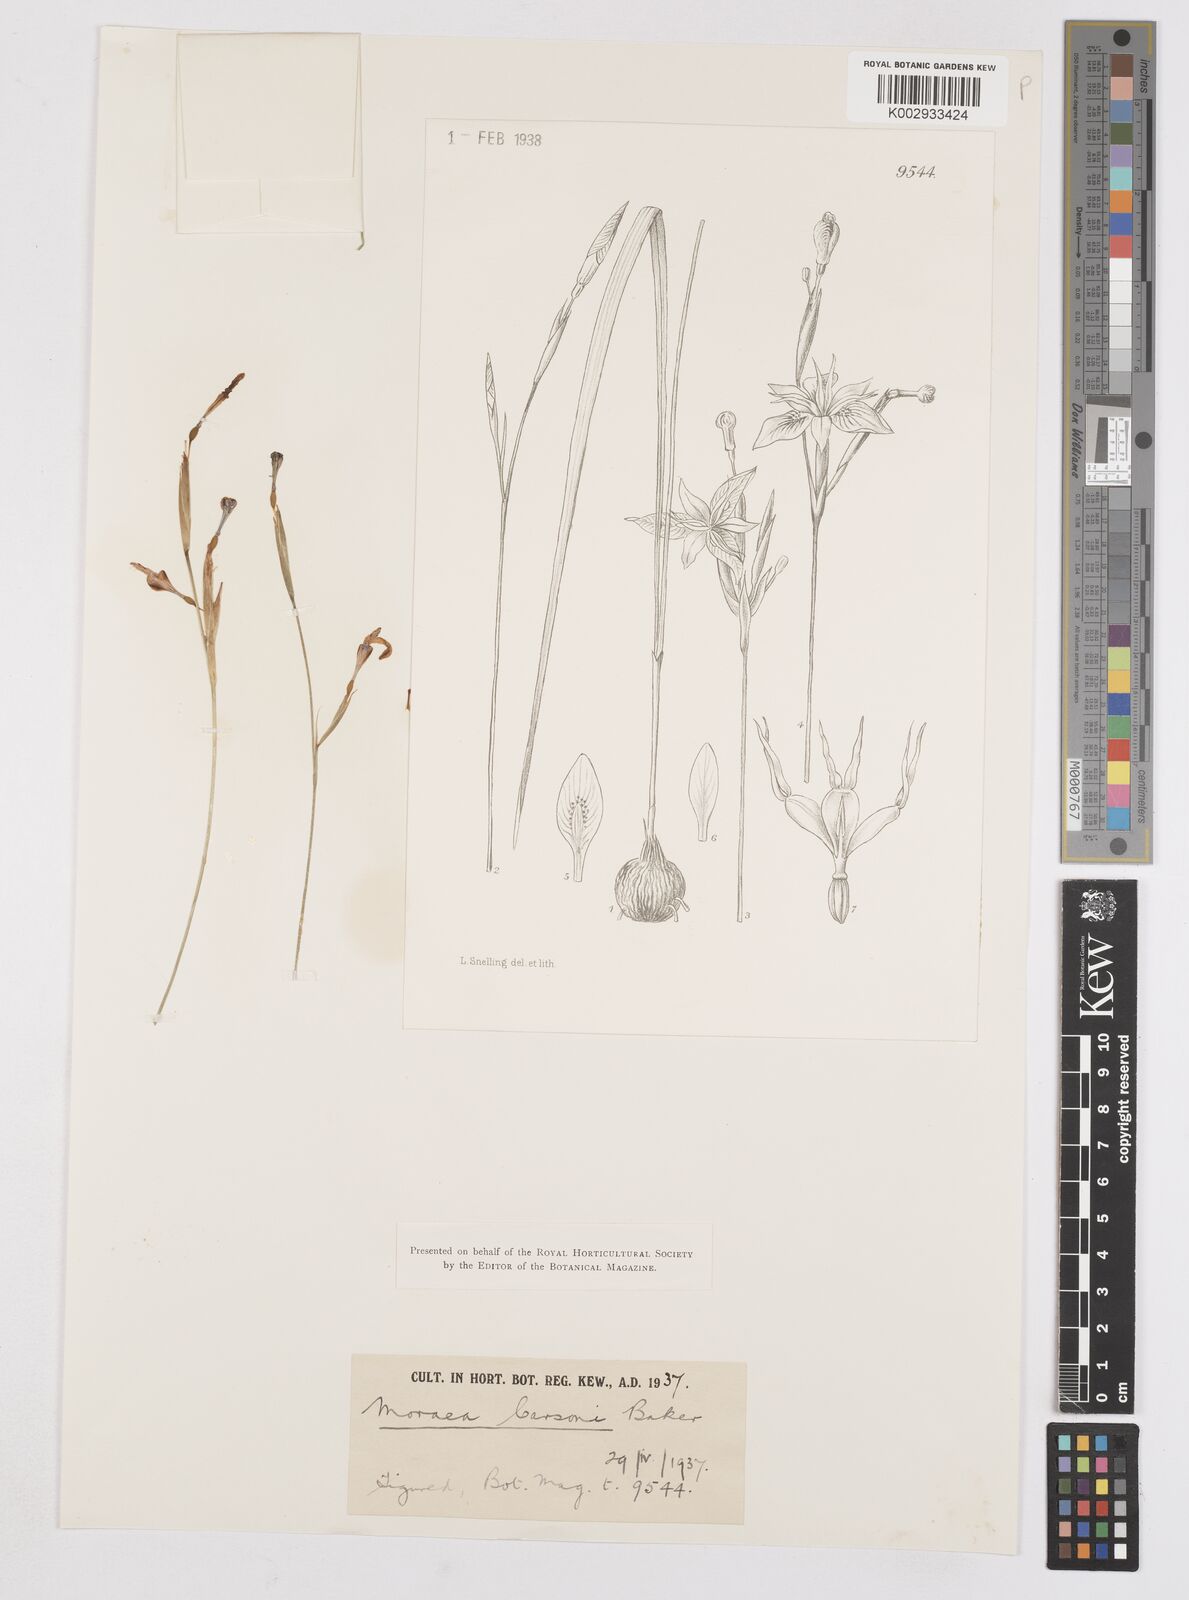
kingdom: Plantae
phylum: Tracheophyta
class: Liliopsida
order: Asparagales
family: Iridaceae
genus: Moraea
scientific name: Moraea afro-orientalis
